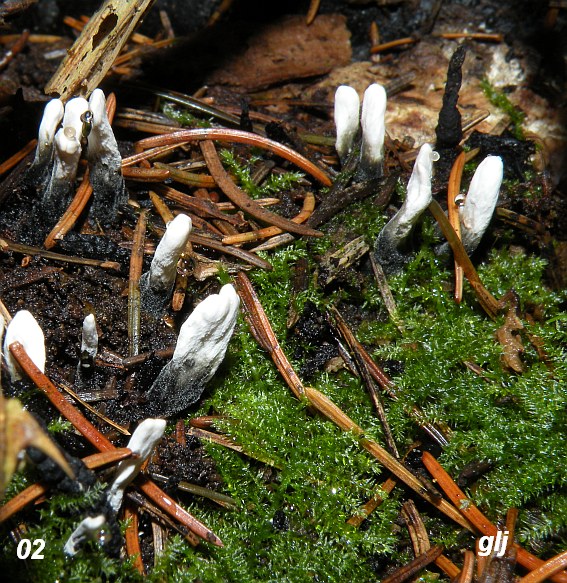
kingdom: Fungi
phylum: Ascomycota
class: Sordariomycetes
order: Xylariales
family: Xylariaceae
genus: Xylaria
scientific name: Xylaria hypoxylon
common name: grenet stødsvamp
